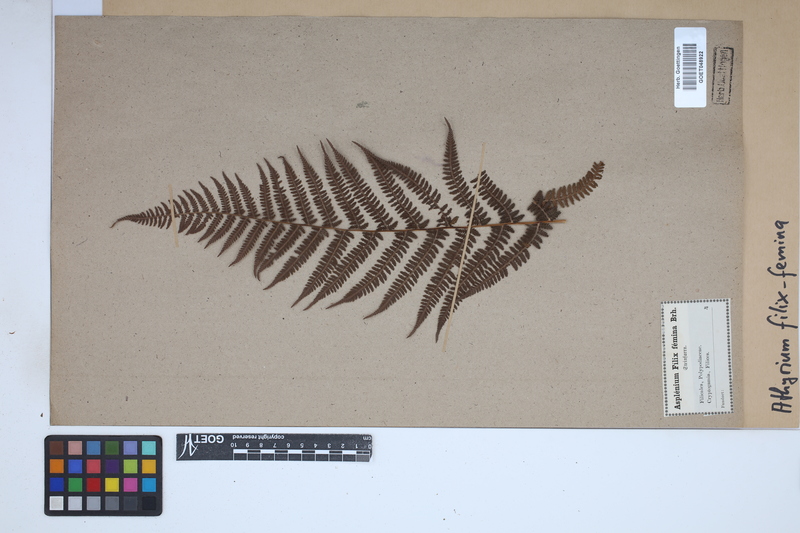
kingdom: Plantae
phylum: Tracheophyta
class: Polypodiopsida
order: Polypodiales
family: Athyriaceae
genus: Athyrium
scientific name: Athyrium filix-femina
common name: Lady fern
